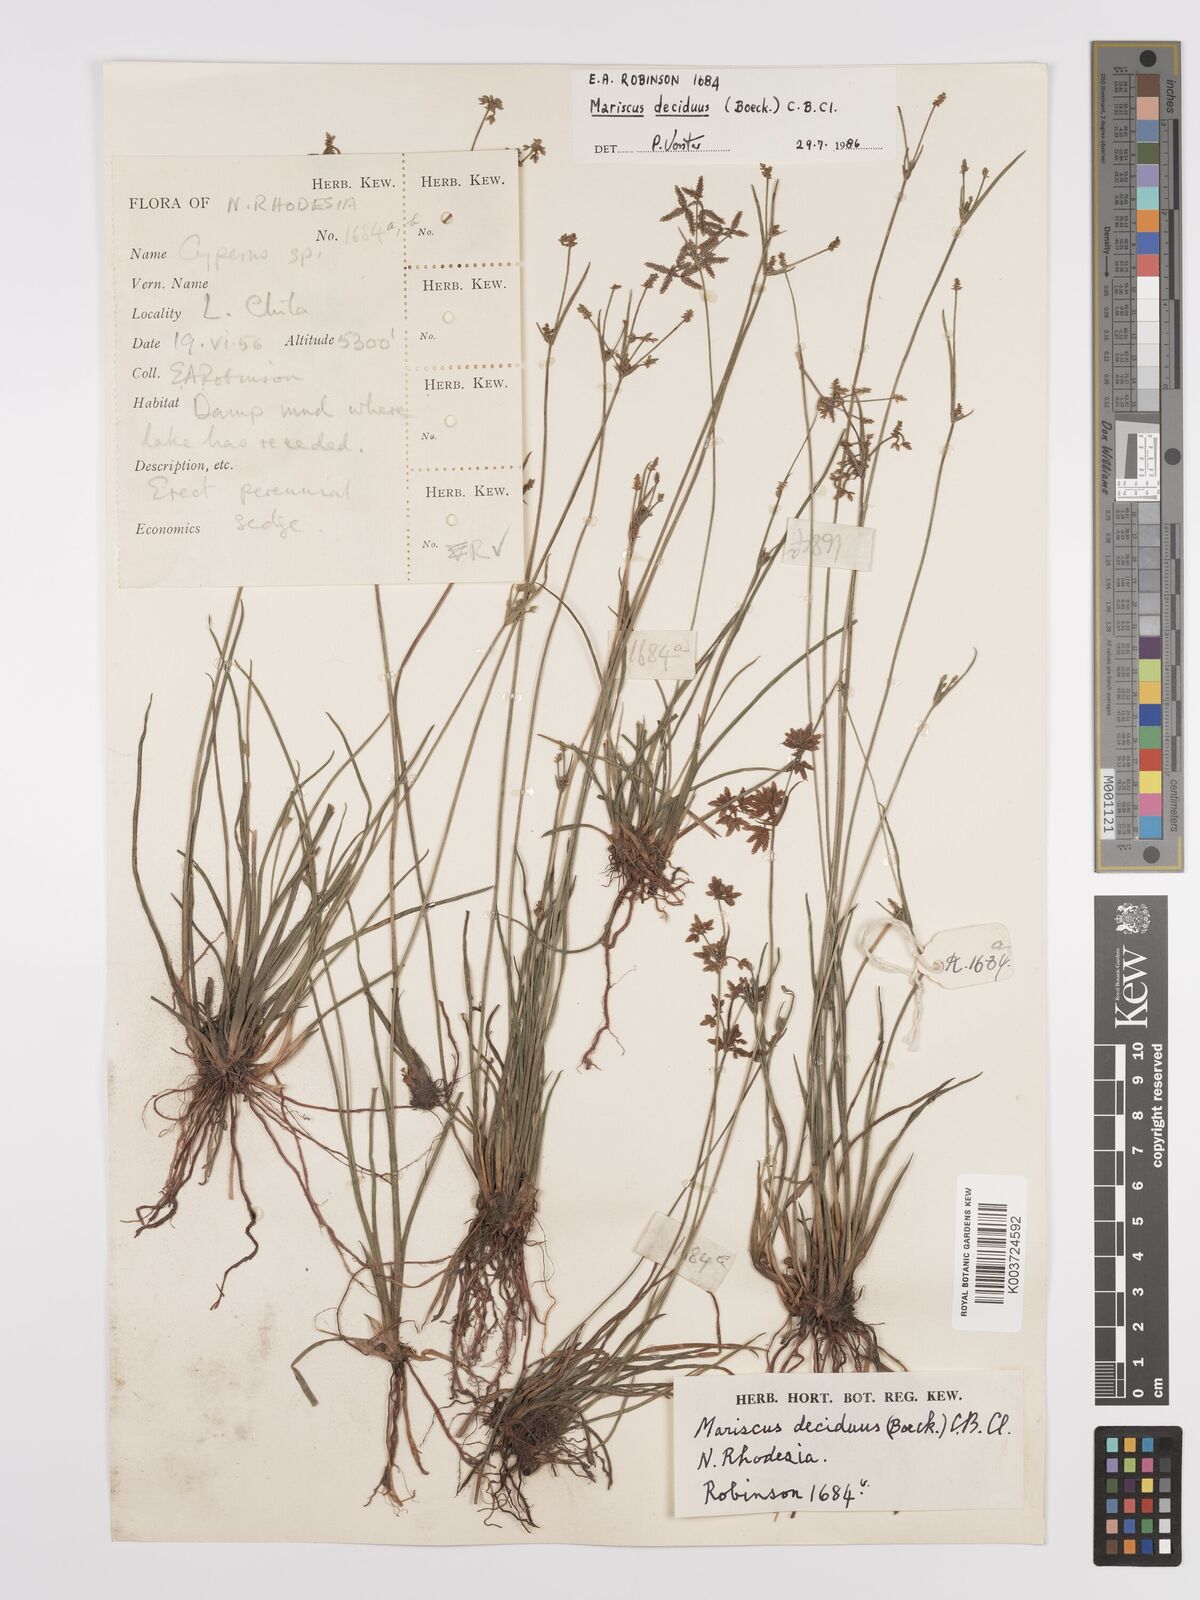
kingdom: Plantae
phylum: Tracheophyta
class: Liliopsida
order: Poales
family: Cyperaceae
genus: Cyperus
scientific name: Cyperus deciduus
